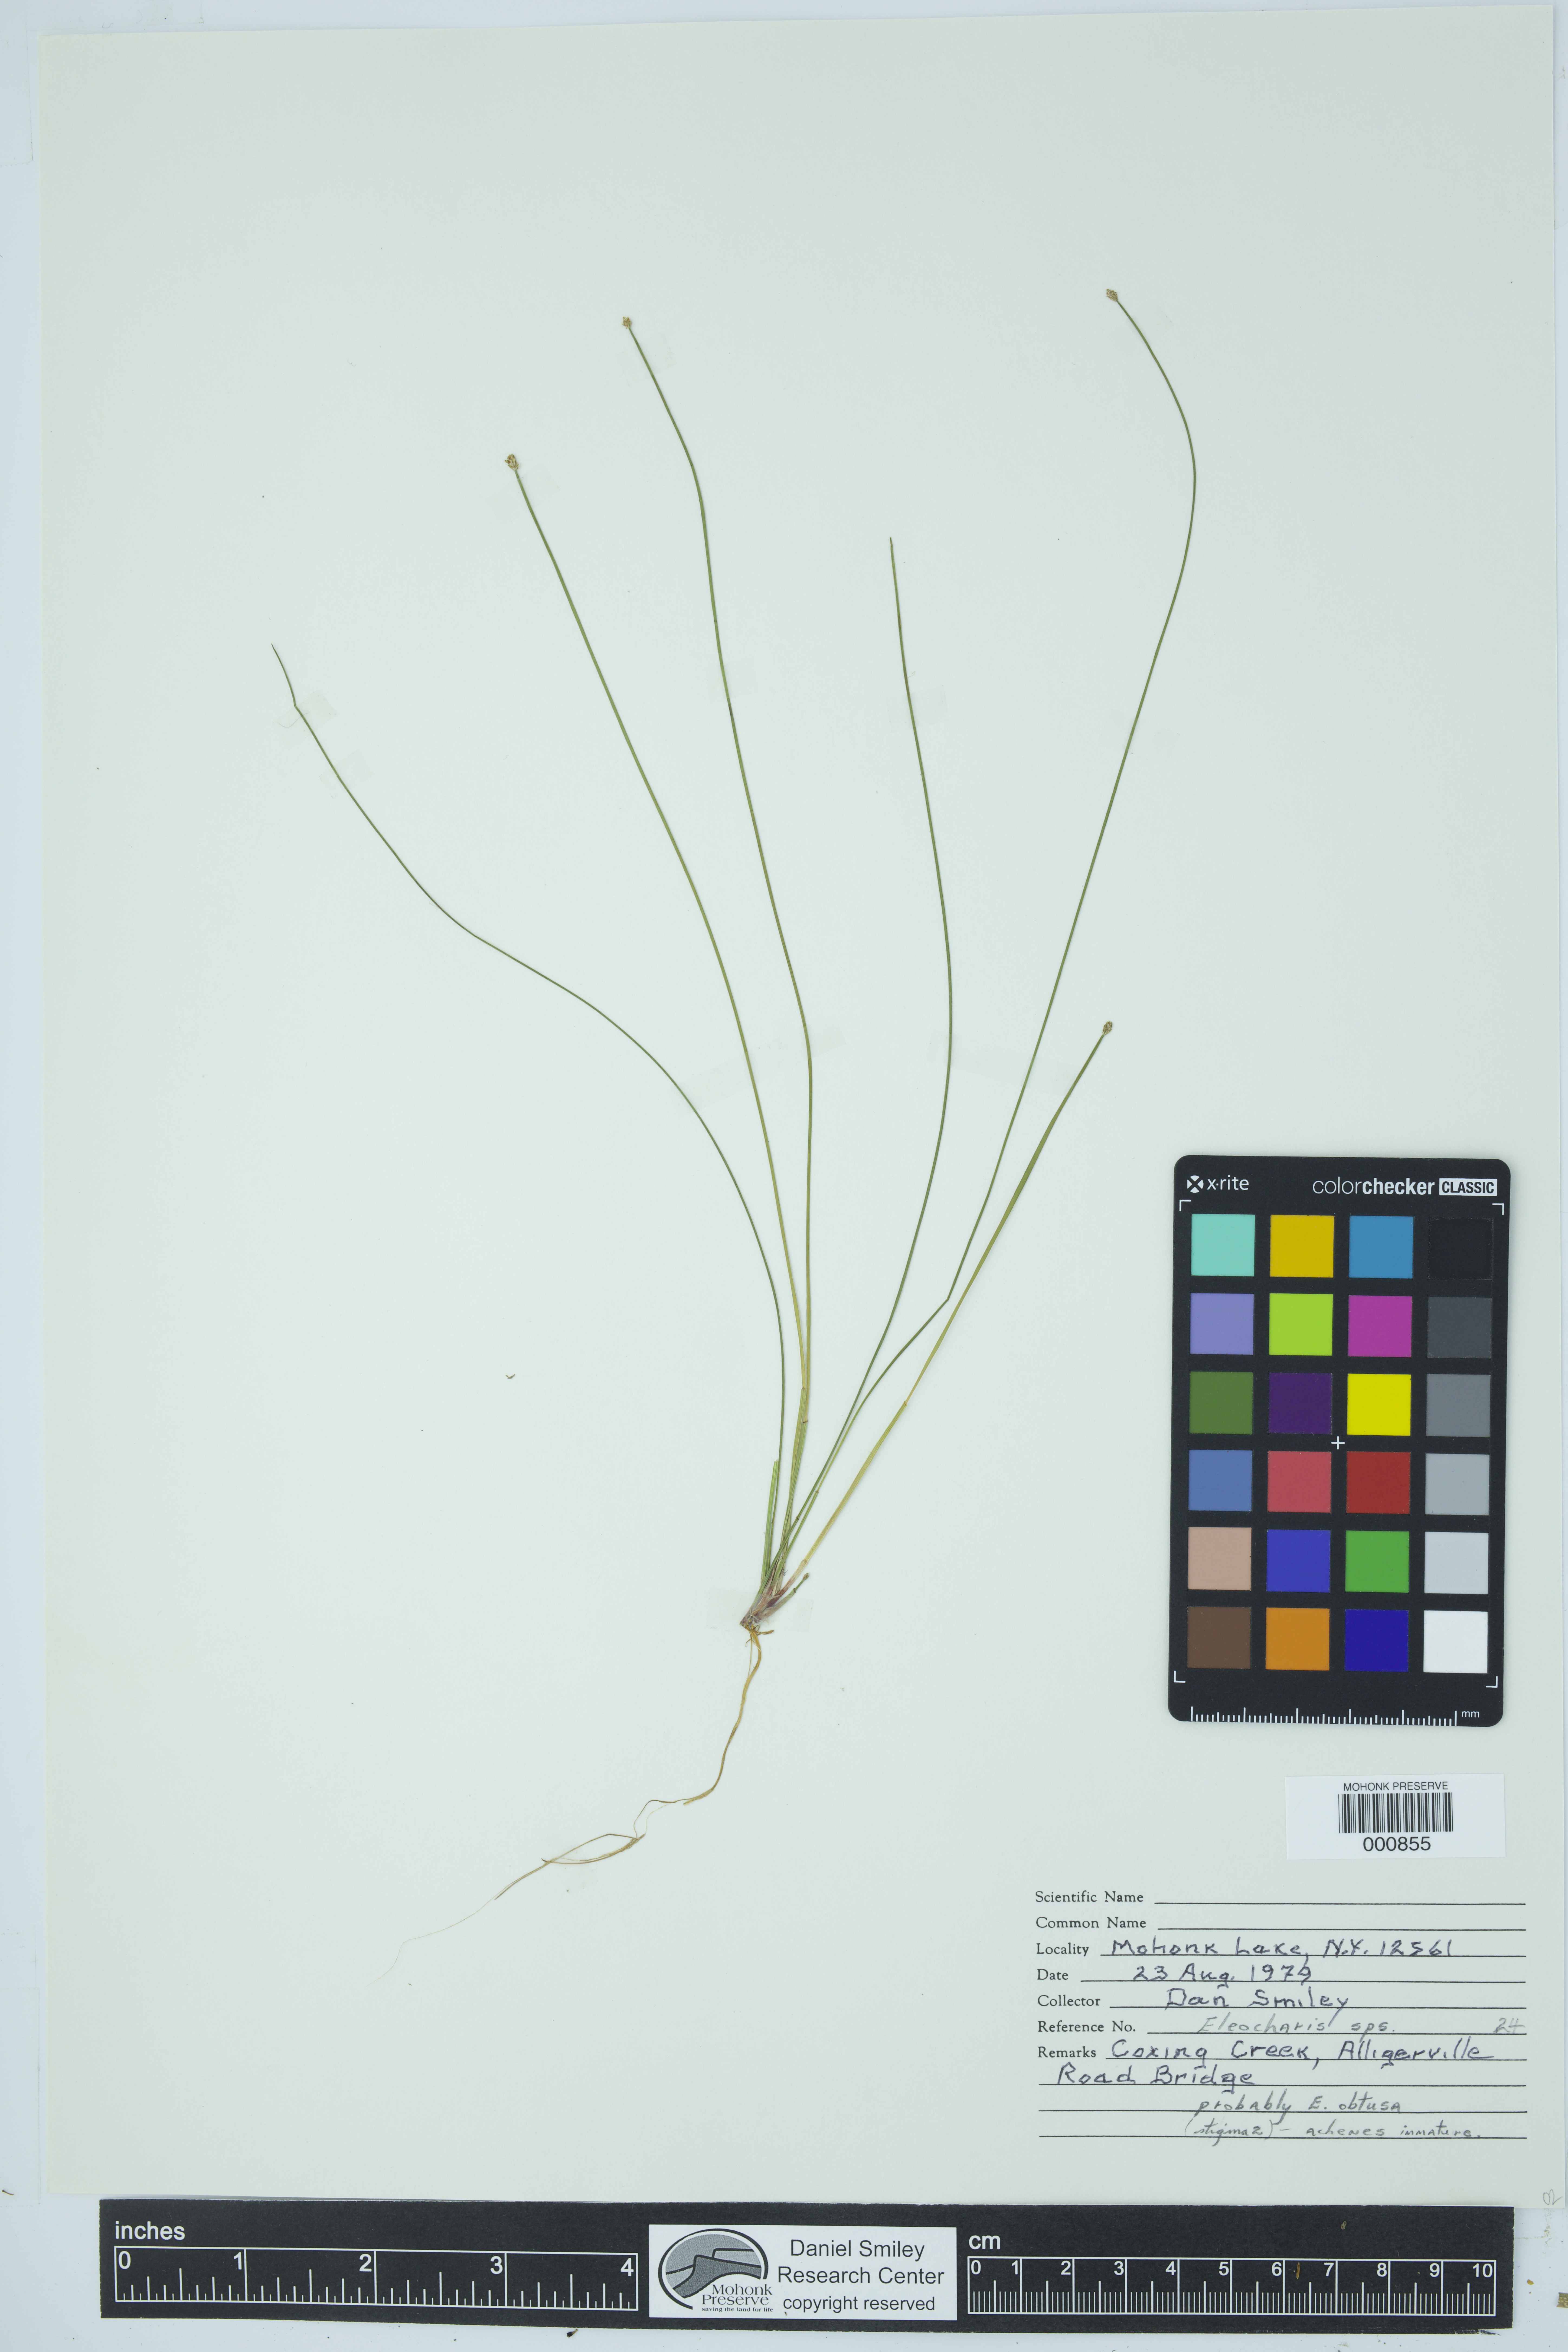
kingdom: Plantae
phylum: Tracheophyta
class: Liliopsida
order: Poales
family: Cyperaceae
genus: Eleocharis
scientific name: Eleocharis obtusa
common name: Blunt spikerush
